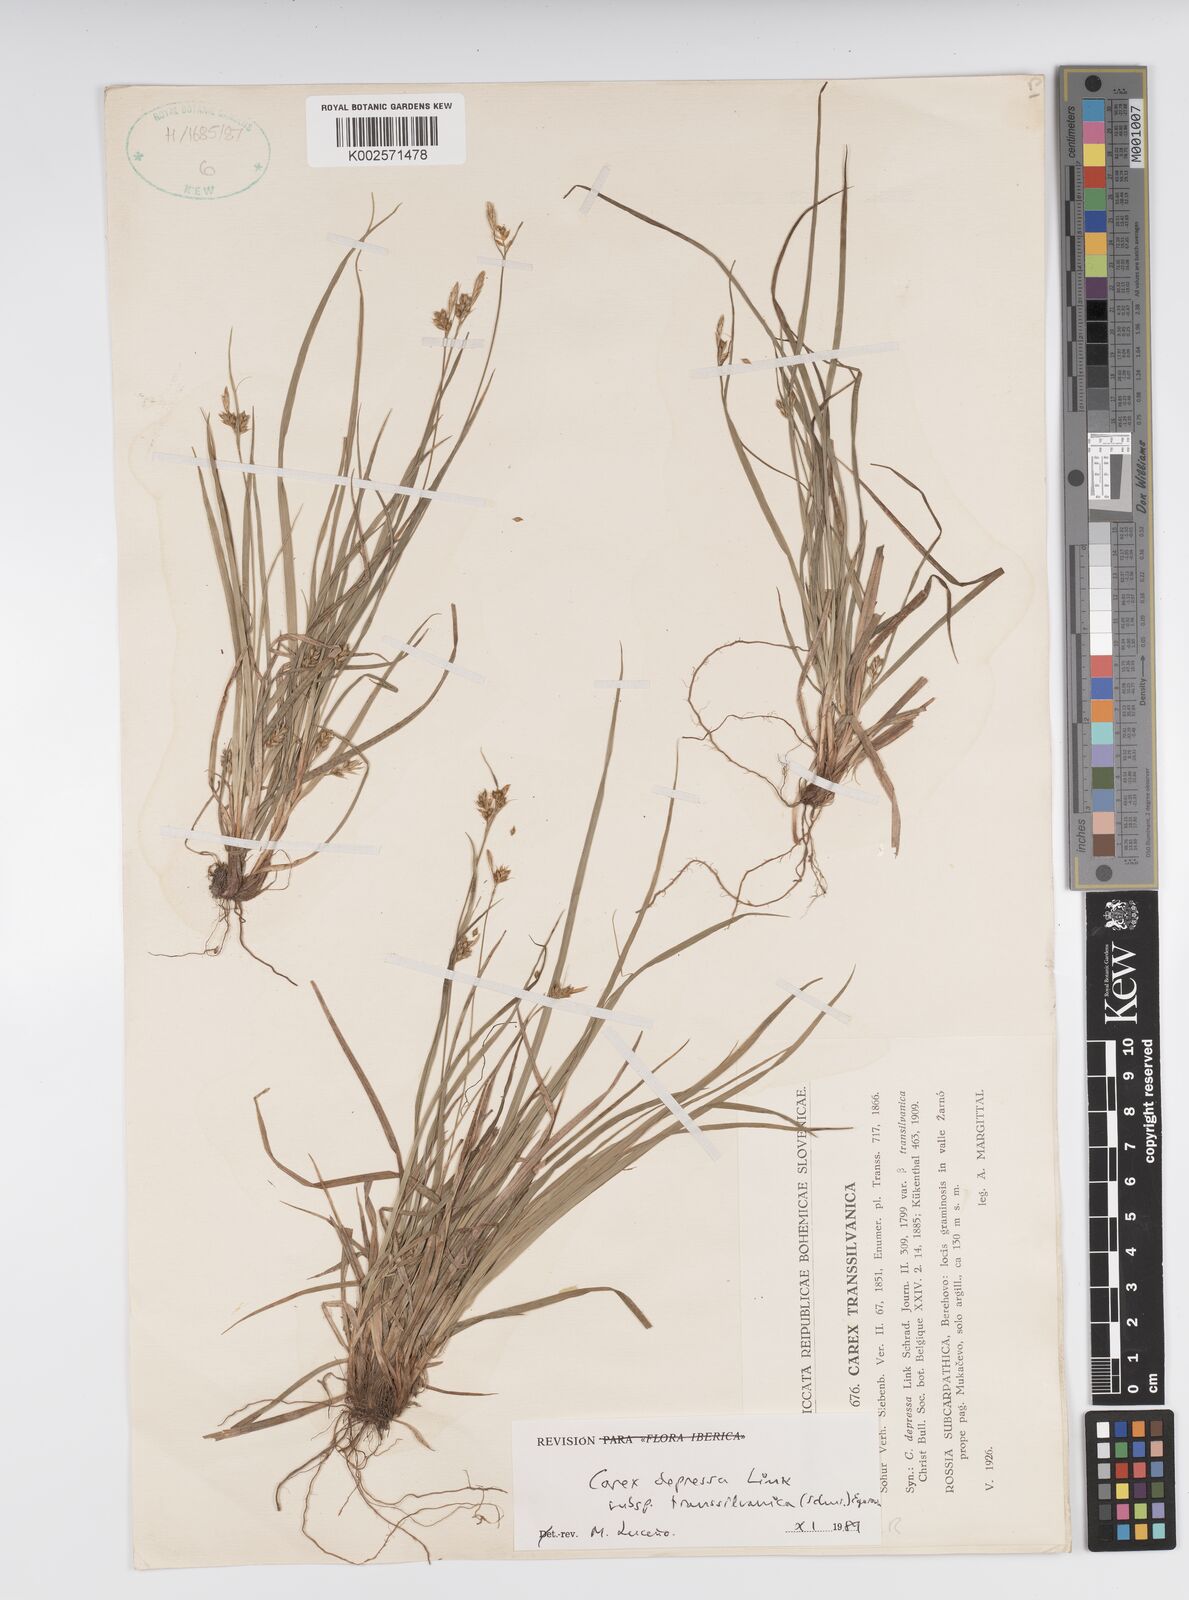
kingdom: Plantae
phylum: Tracheophyta
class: Liliopsida
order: Poales
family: Cyperaceae
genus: Carex
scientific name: Carex depressa
